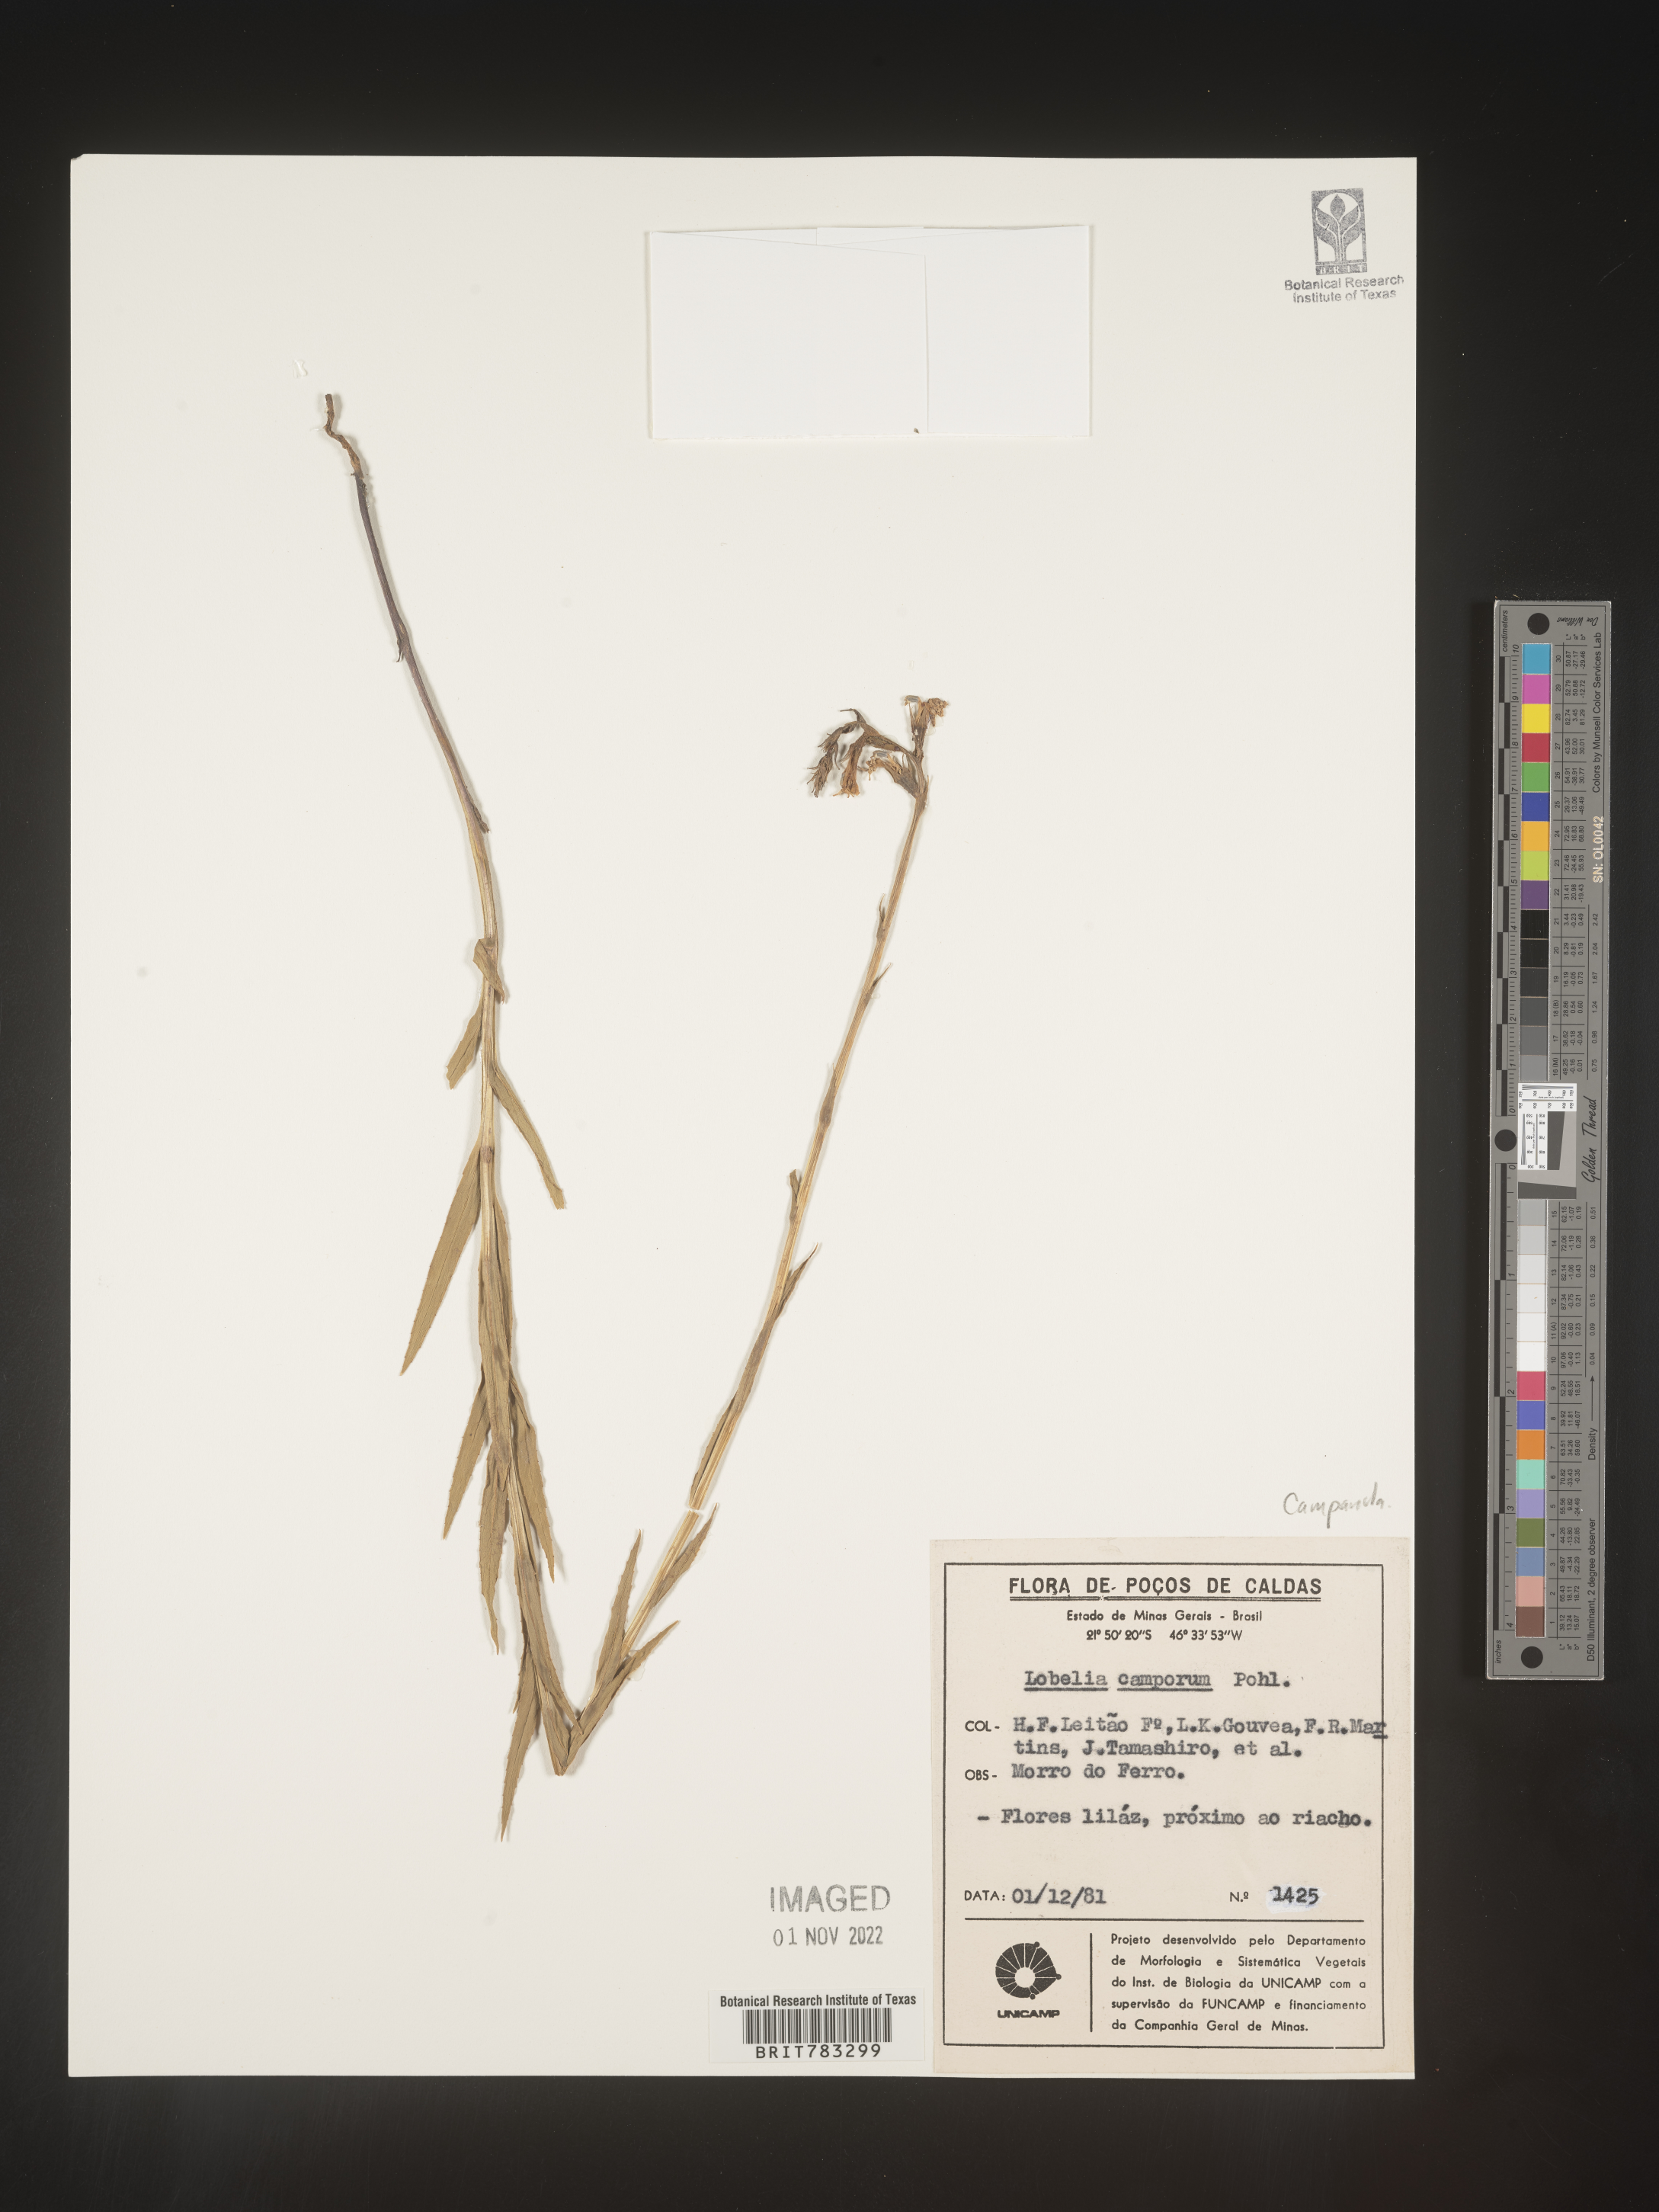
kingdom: Plantae
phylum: Tracheophyta
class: Magnoliopsida
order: Asterales
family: Campanulaceae
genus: Lobelia
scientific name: Lobelia
